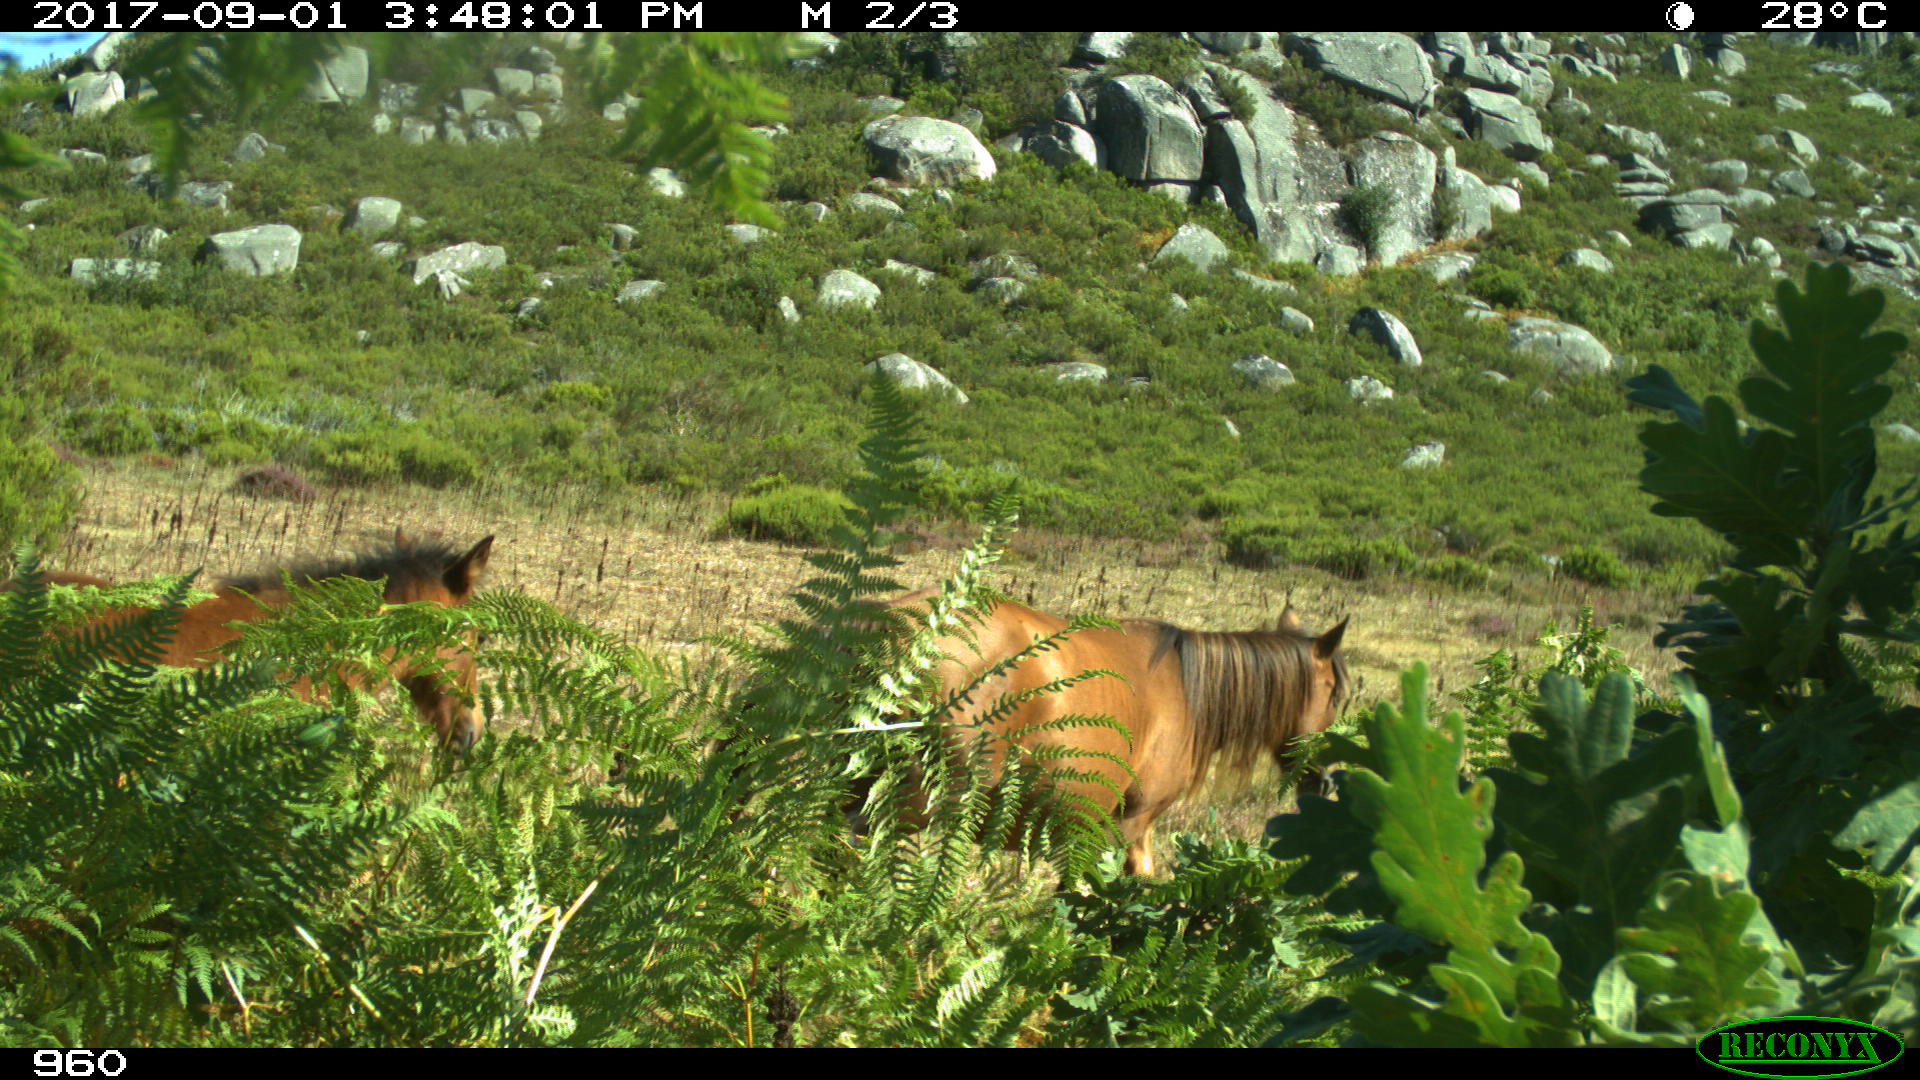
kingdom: Animalia
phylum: Chordata
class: Mammalia
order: Perissodactyla
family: Equidae
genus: Equus
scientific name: Equus caballus
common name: Horse
